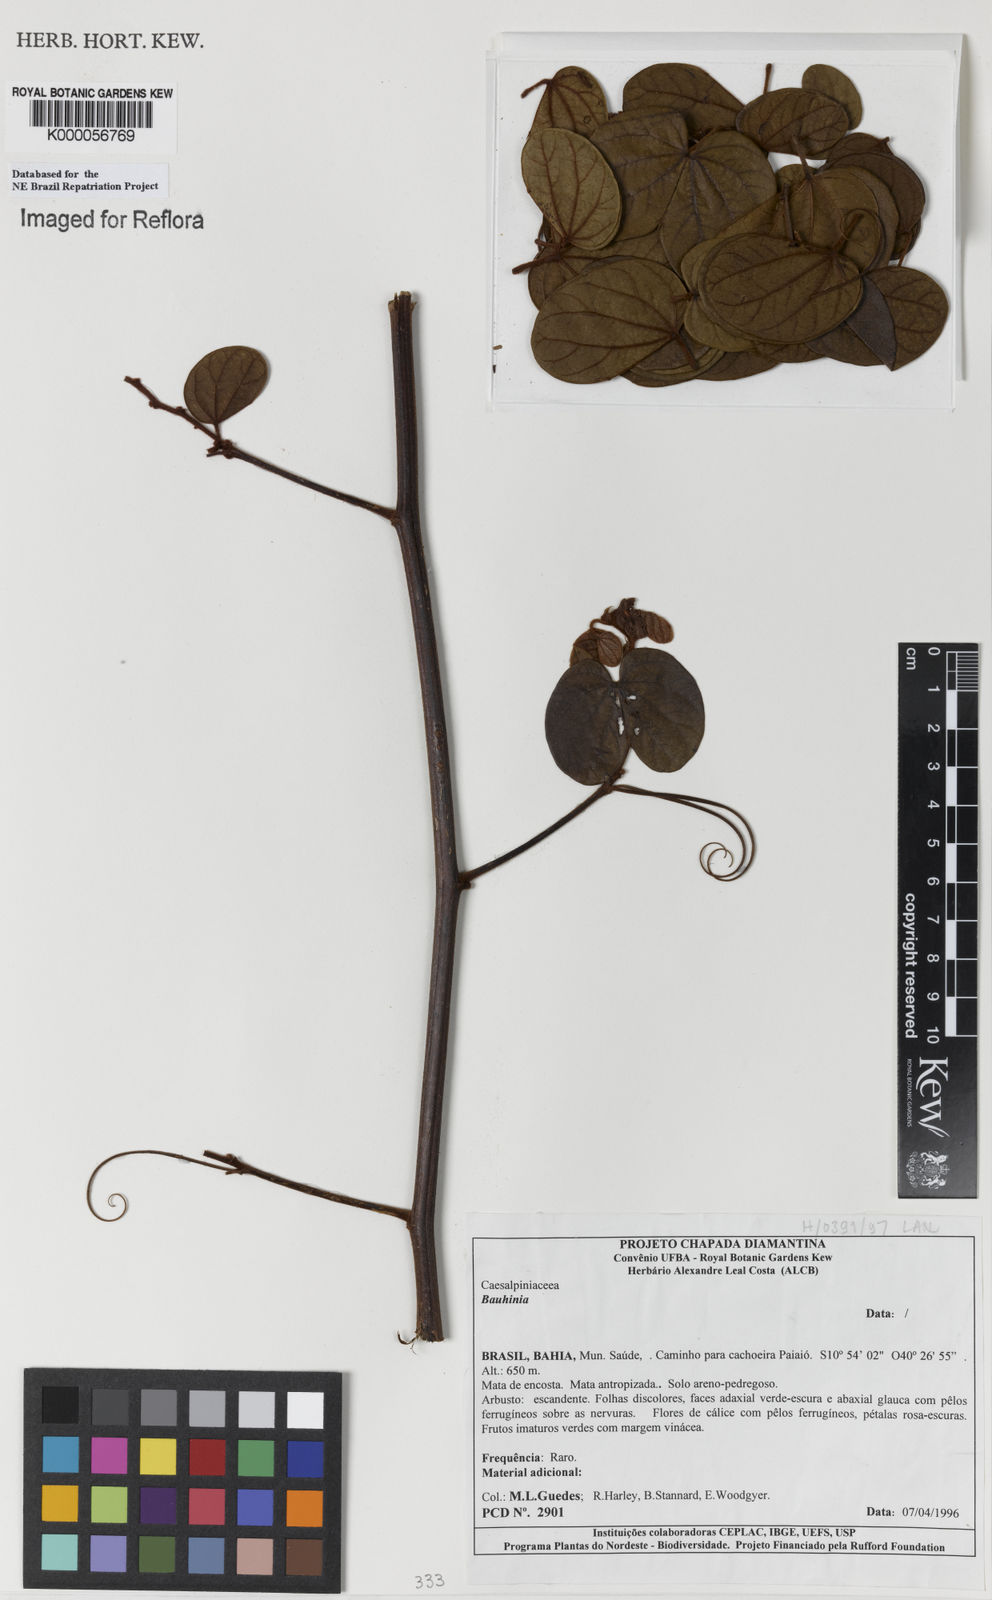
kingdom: Plantae
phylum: Tracheophyta
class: Magnoliopsida
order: Fabales
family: Fabaceae
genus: Schnella
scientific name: Schnella trichosepala
